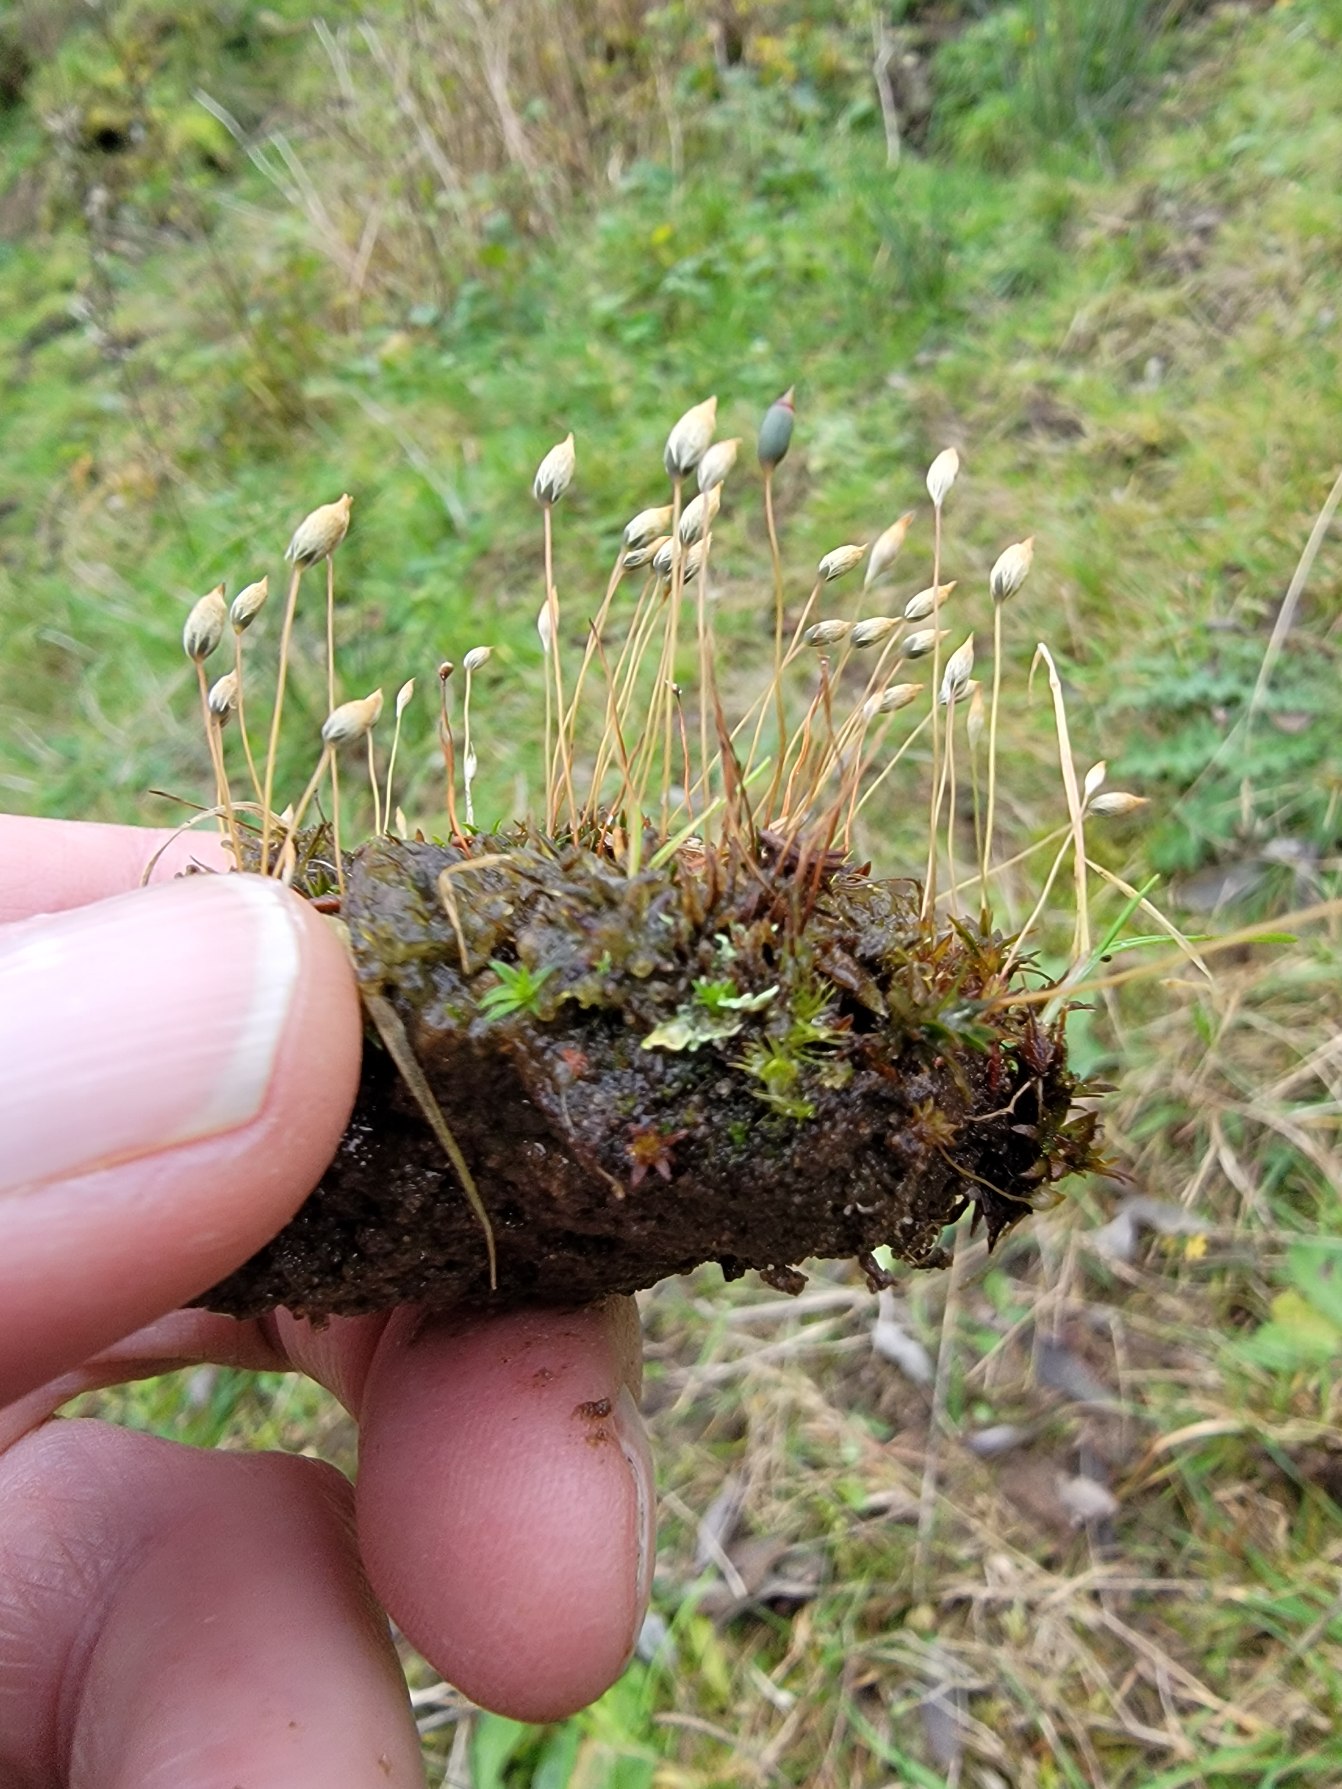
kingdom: Plantae
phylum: Bryophyta
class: Polytrichopsida
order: Polytrichales
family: Polytrichaceae
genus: Pogonatum
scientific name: Pogonatum aloides
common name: Smal urnekapsel
